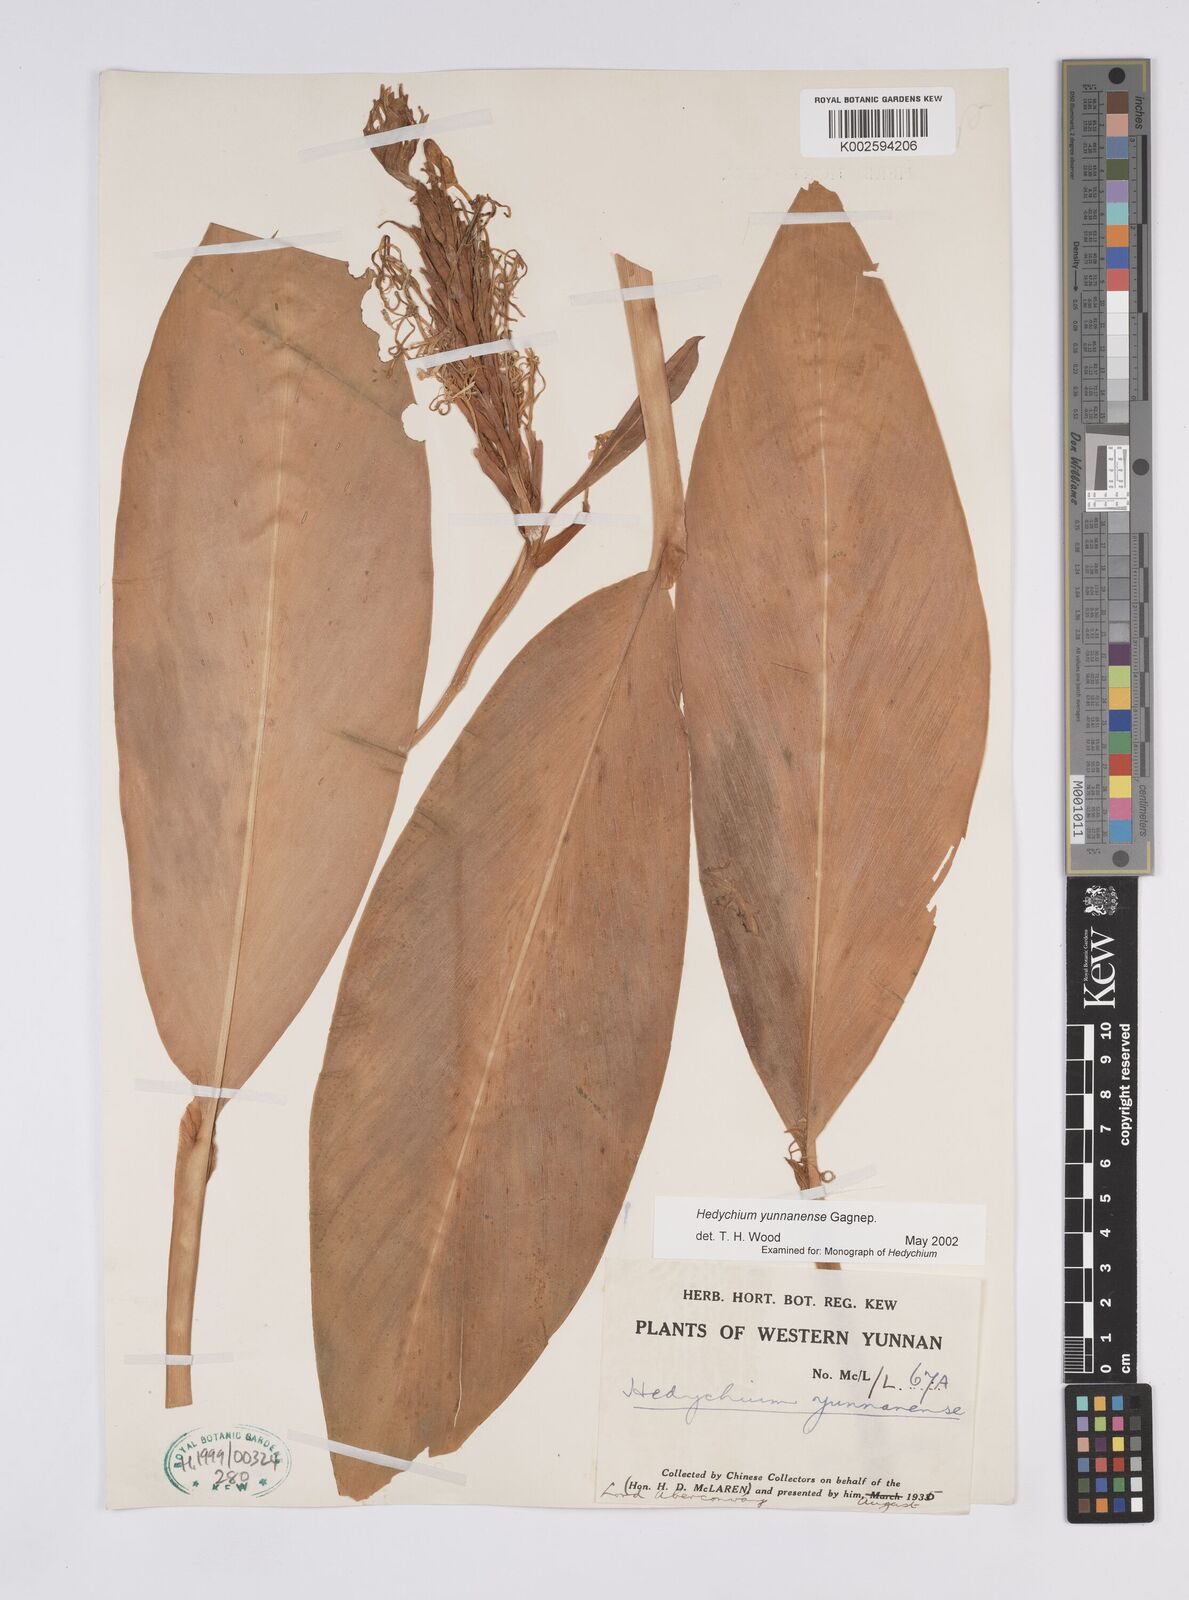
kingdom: Plantae
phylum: Tracheophyta
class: Liliopsida
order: Zingiberales
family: Zingiberaceae
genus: Hedychium
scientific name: Hedychium yunnanense
